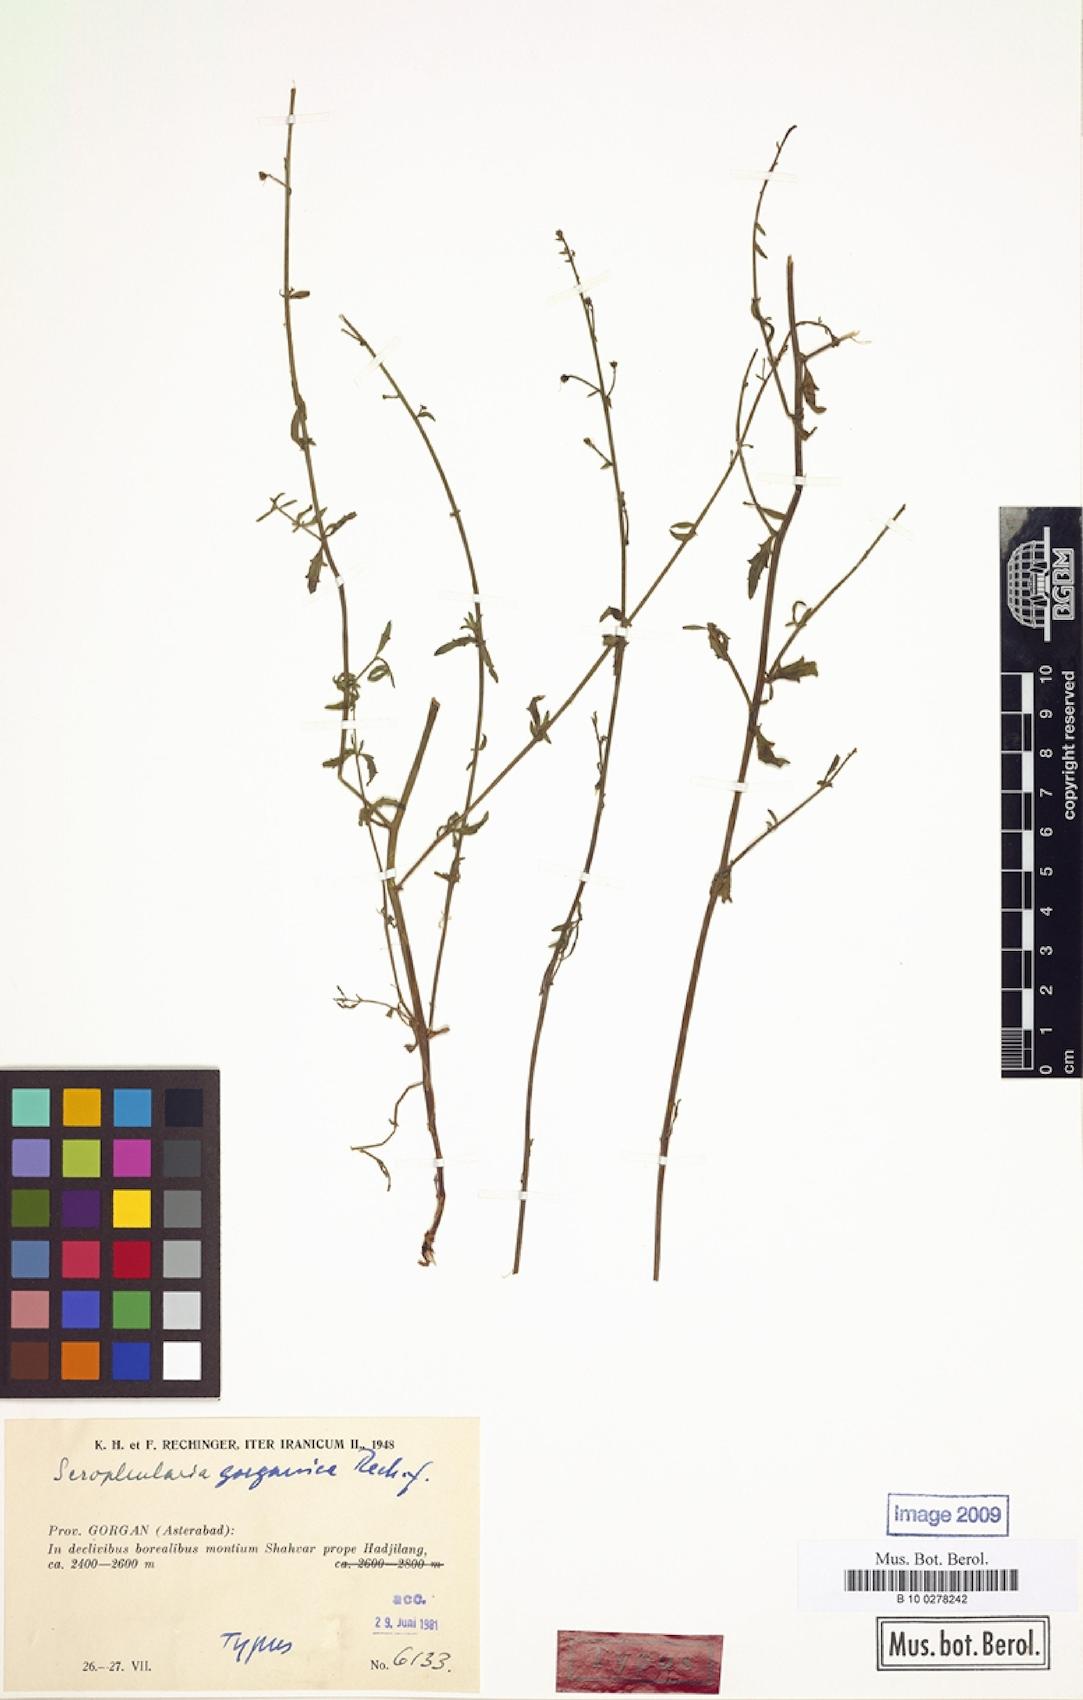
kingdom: Plantae
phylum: Tracheophyta
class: Magnoliopsida
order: Lamiales
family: Scrophulariaceae
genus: Scrophularia
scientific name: Scrophularia gorganica
